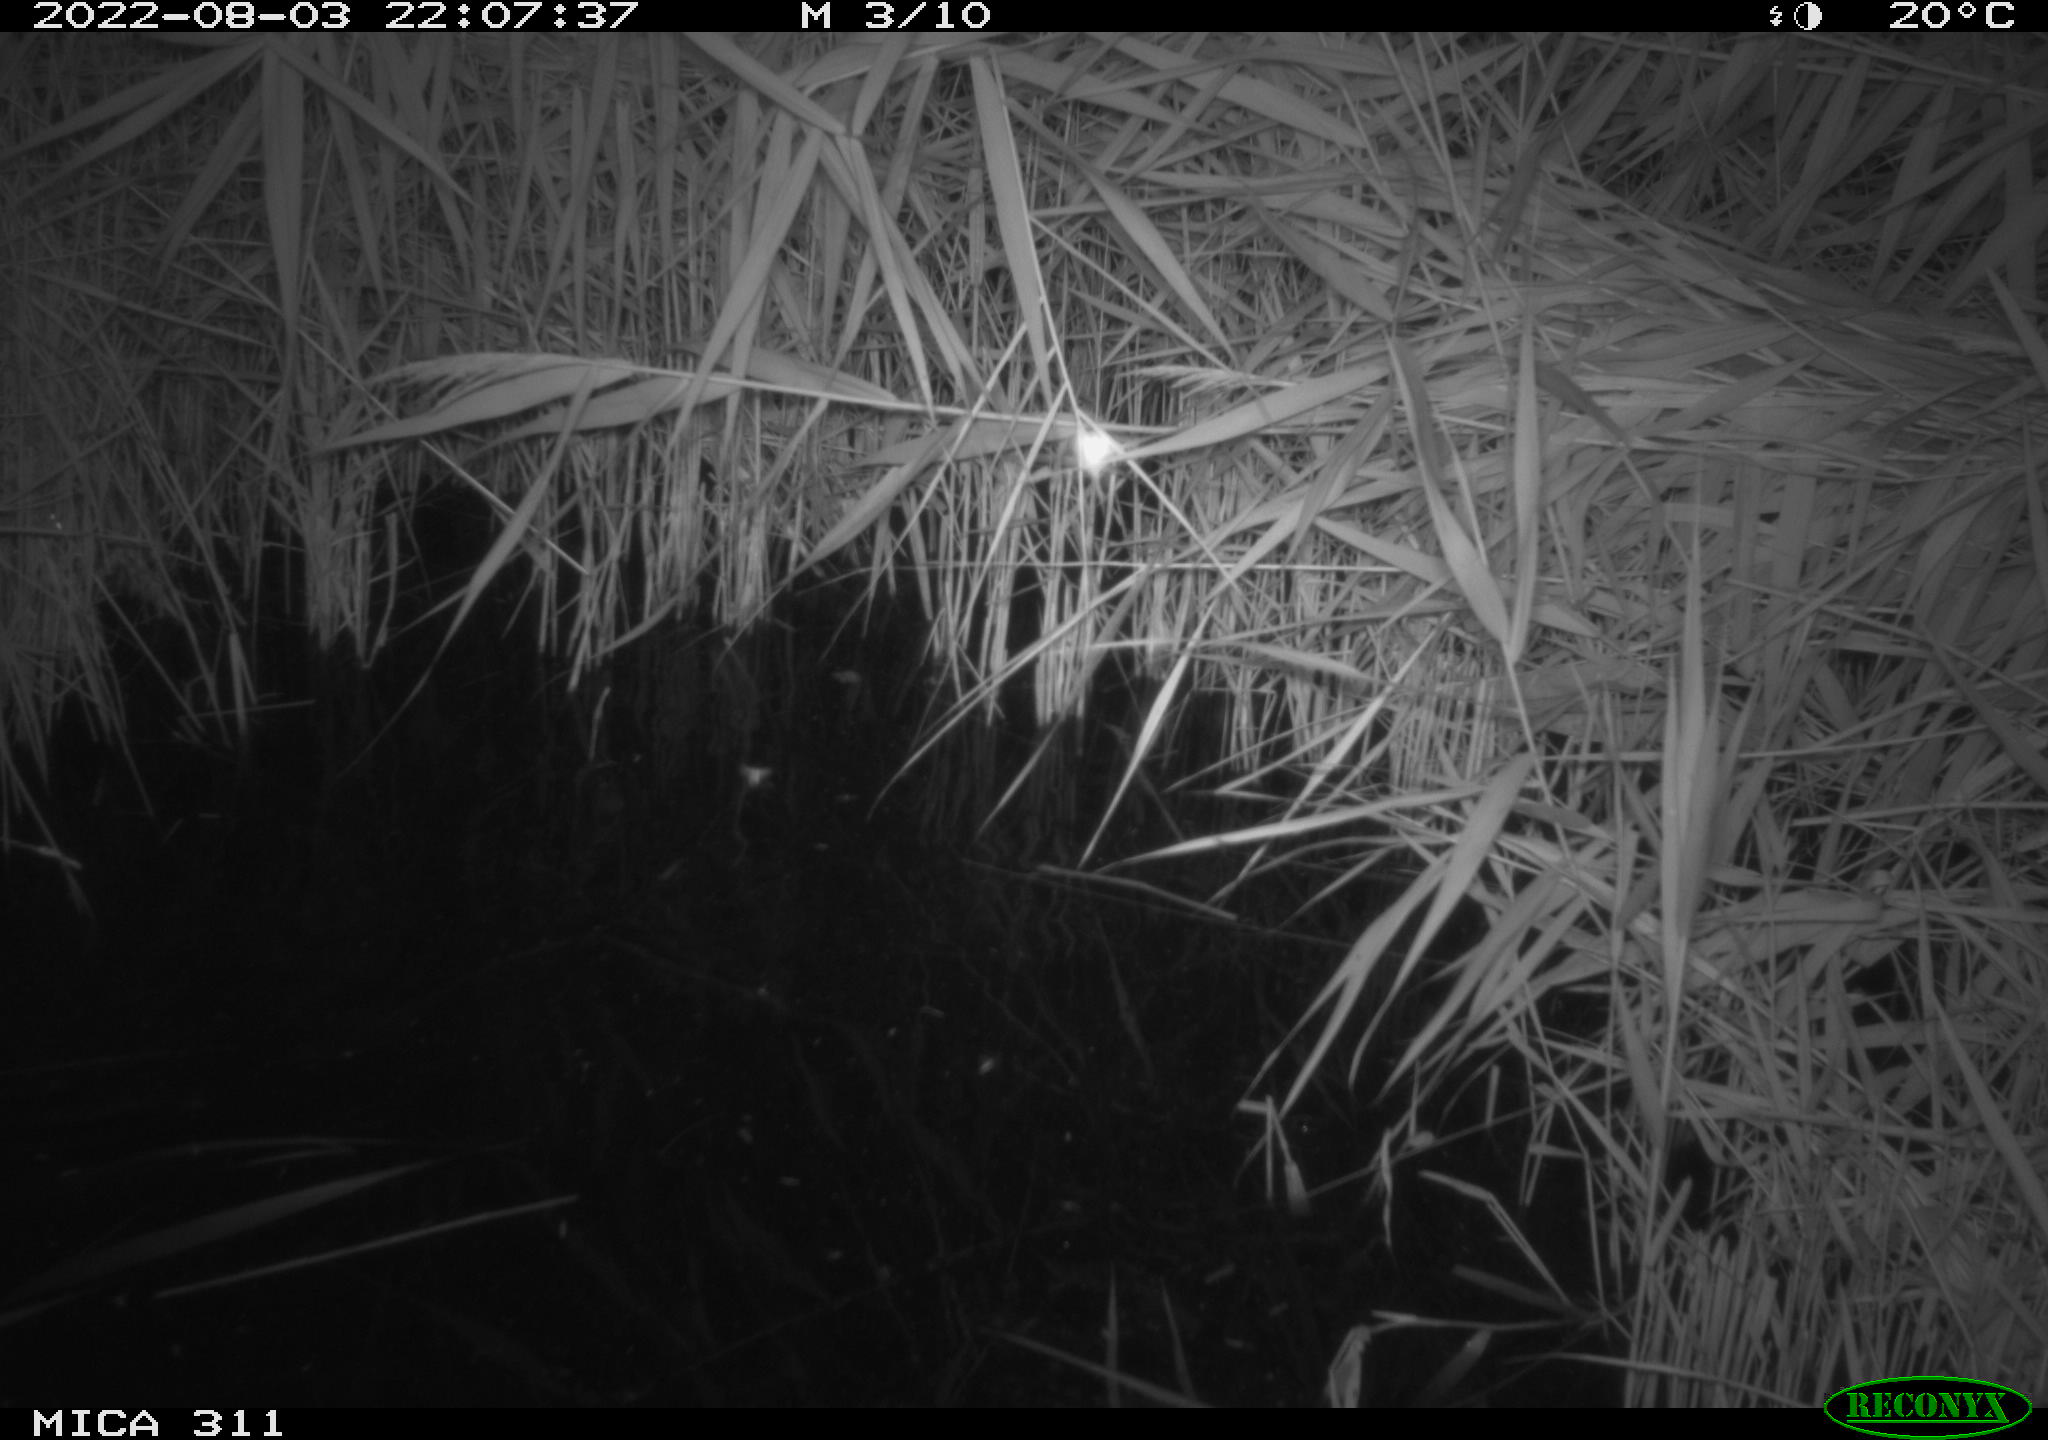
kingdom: Animalia
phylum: Chordata
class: Mammalia
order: Rodentia
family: Muridae
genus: Rattus
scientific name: Rattus norvegicus
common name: Brown rat
